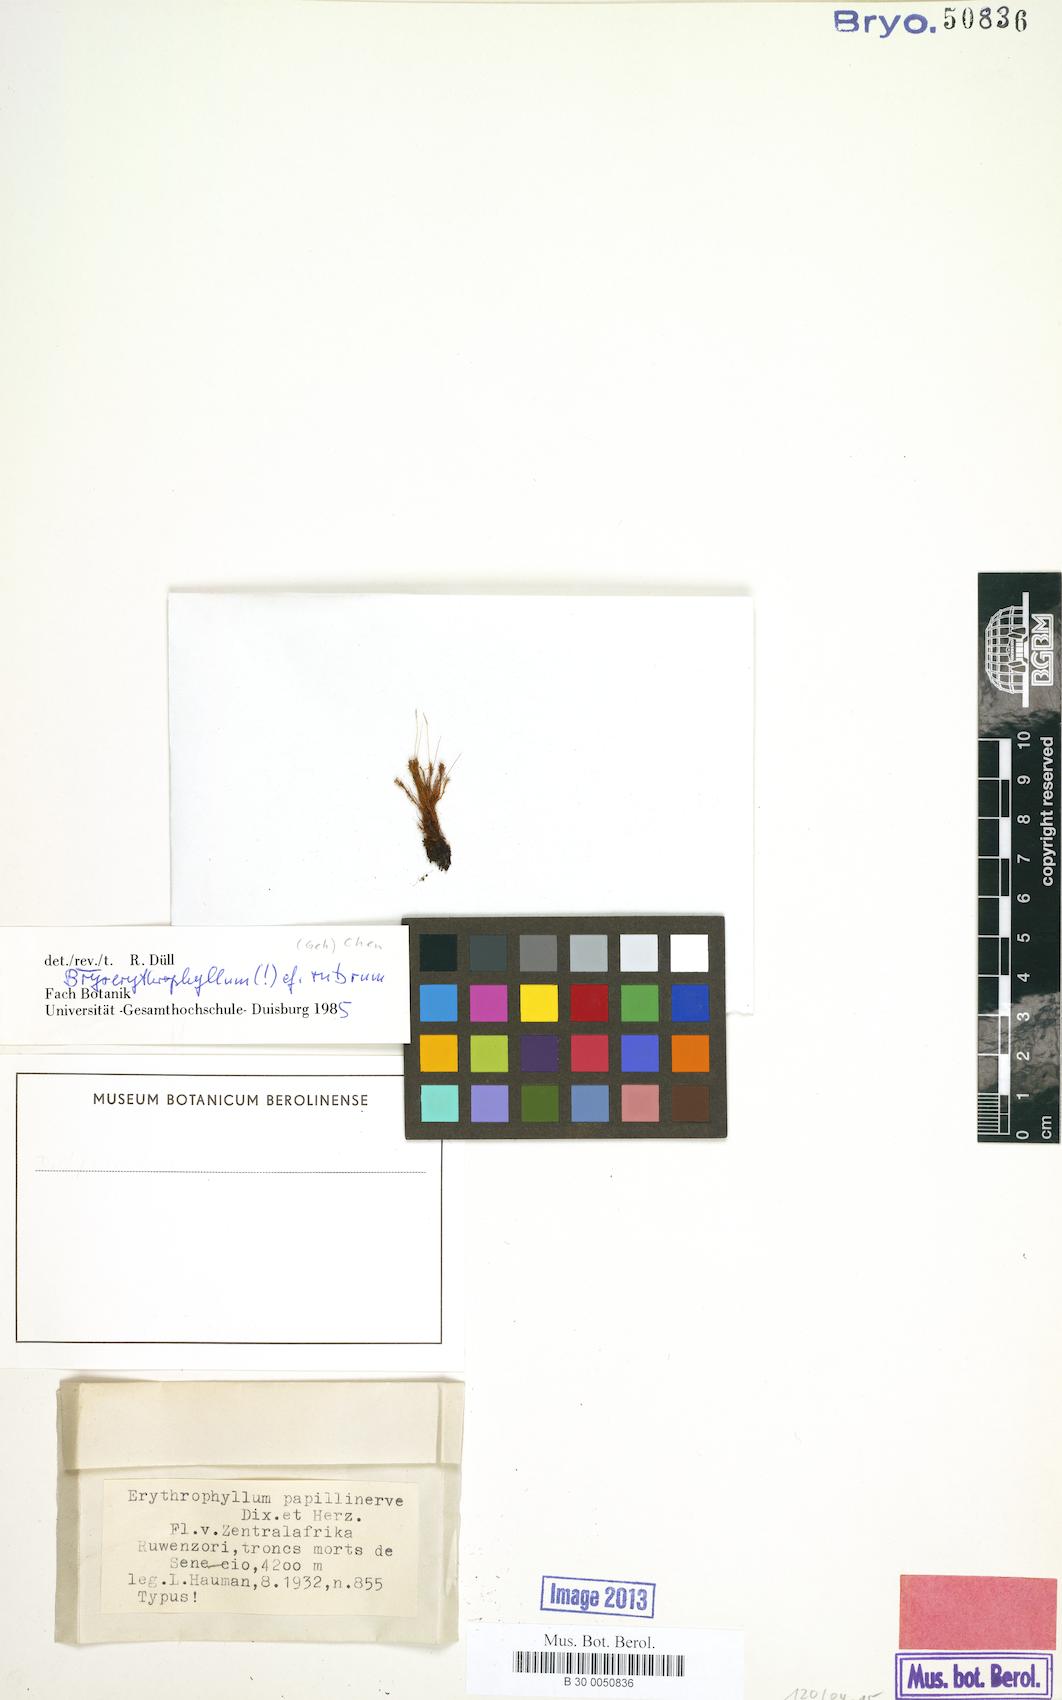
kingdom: Plantae
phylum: Bryophyta
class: Bryopsida
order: Pottiales
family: Pottiaceae
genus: Bryoerythrophyllum
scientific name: Bryoerythrophyllum rubrum
